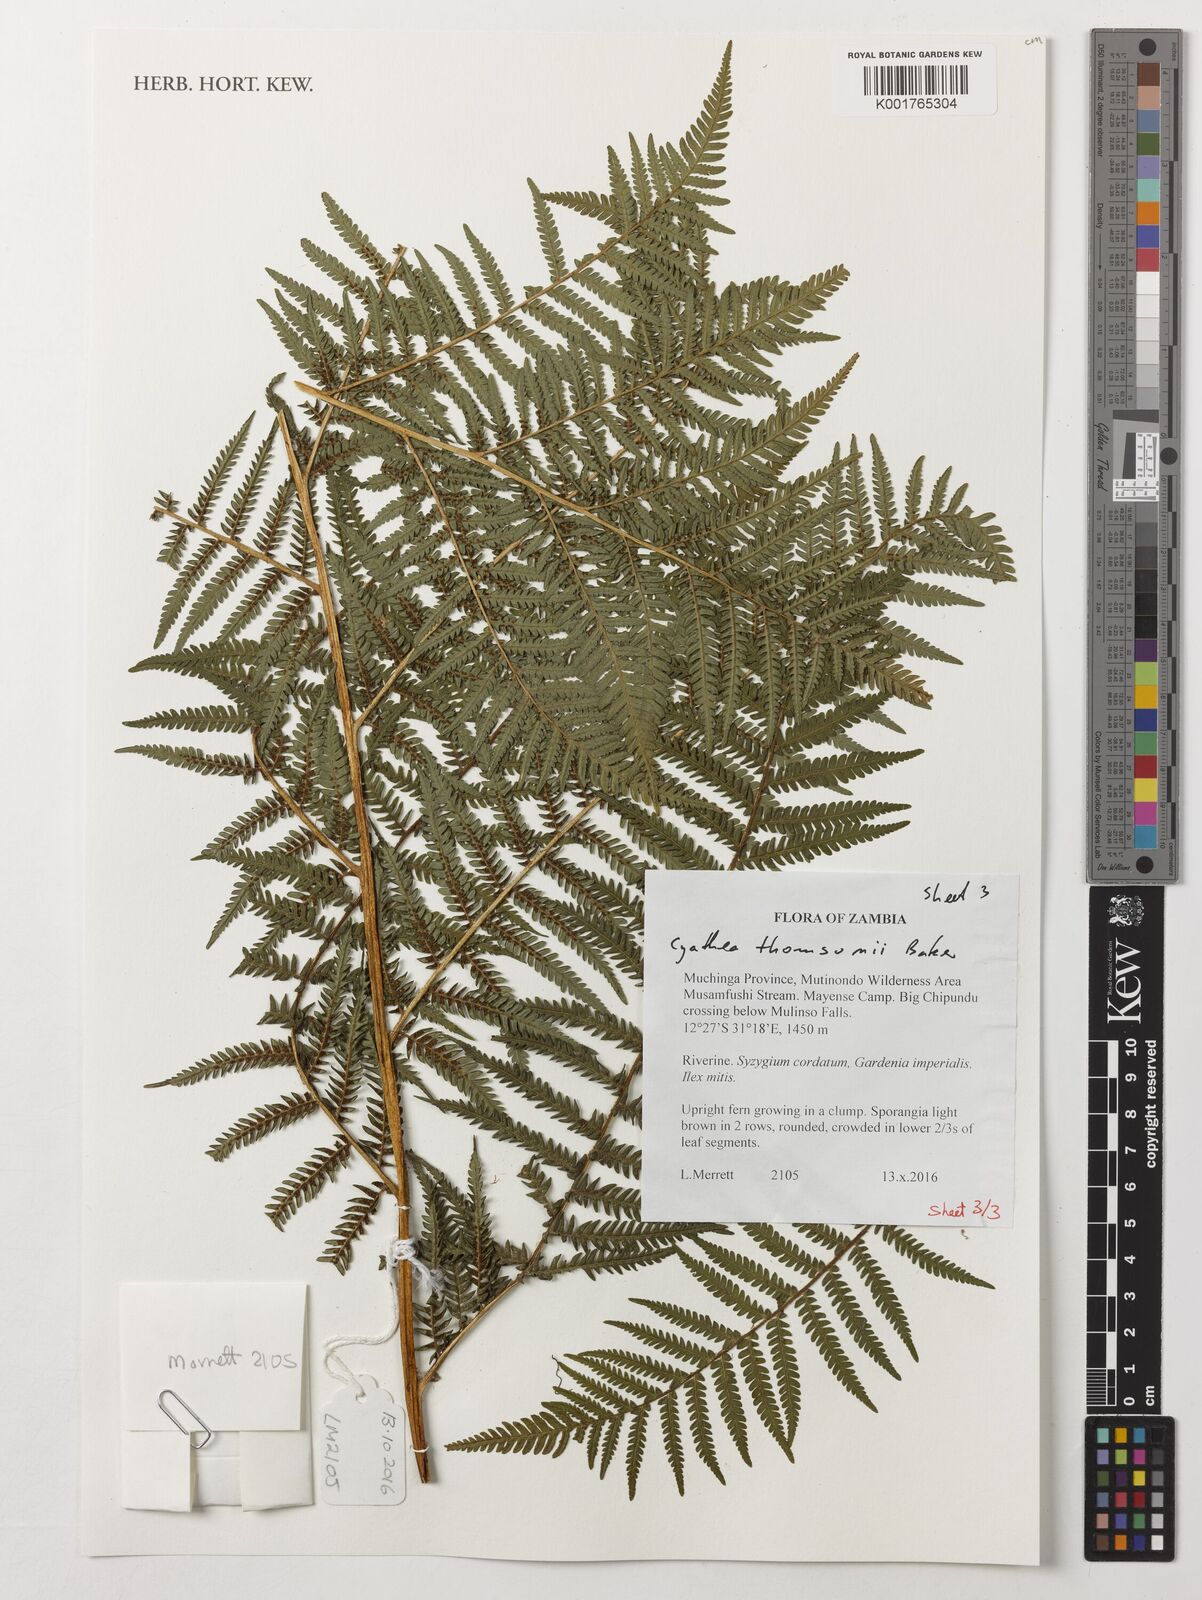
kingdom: Plantae
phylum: Tracheophyta
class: Polypodiopsida
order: Cyatheales
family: Cyatheaceae
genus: Alsophila
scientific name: Alsophila thomsonii
